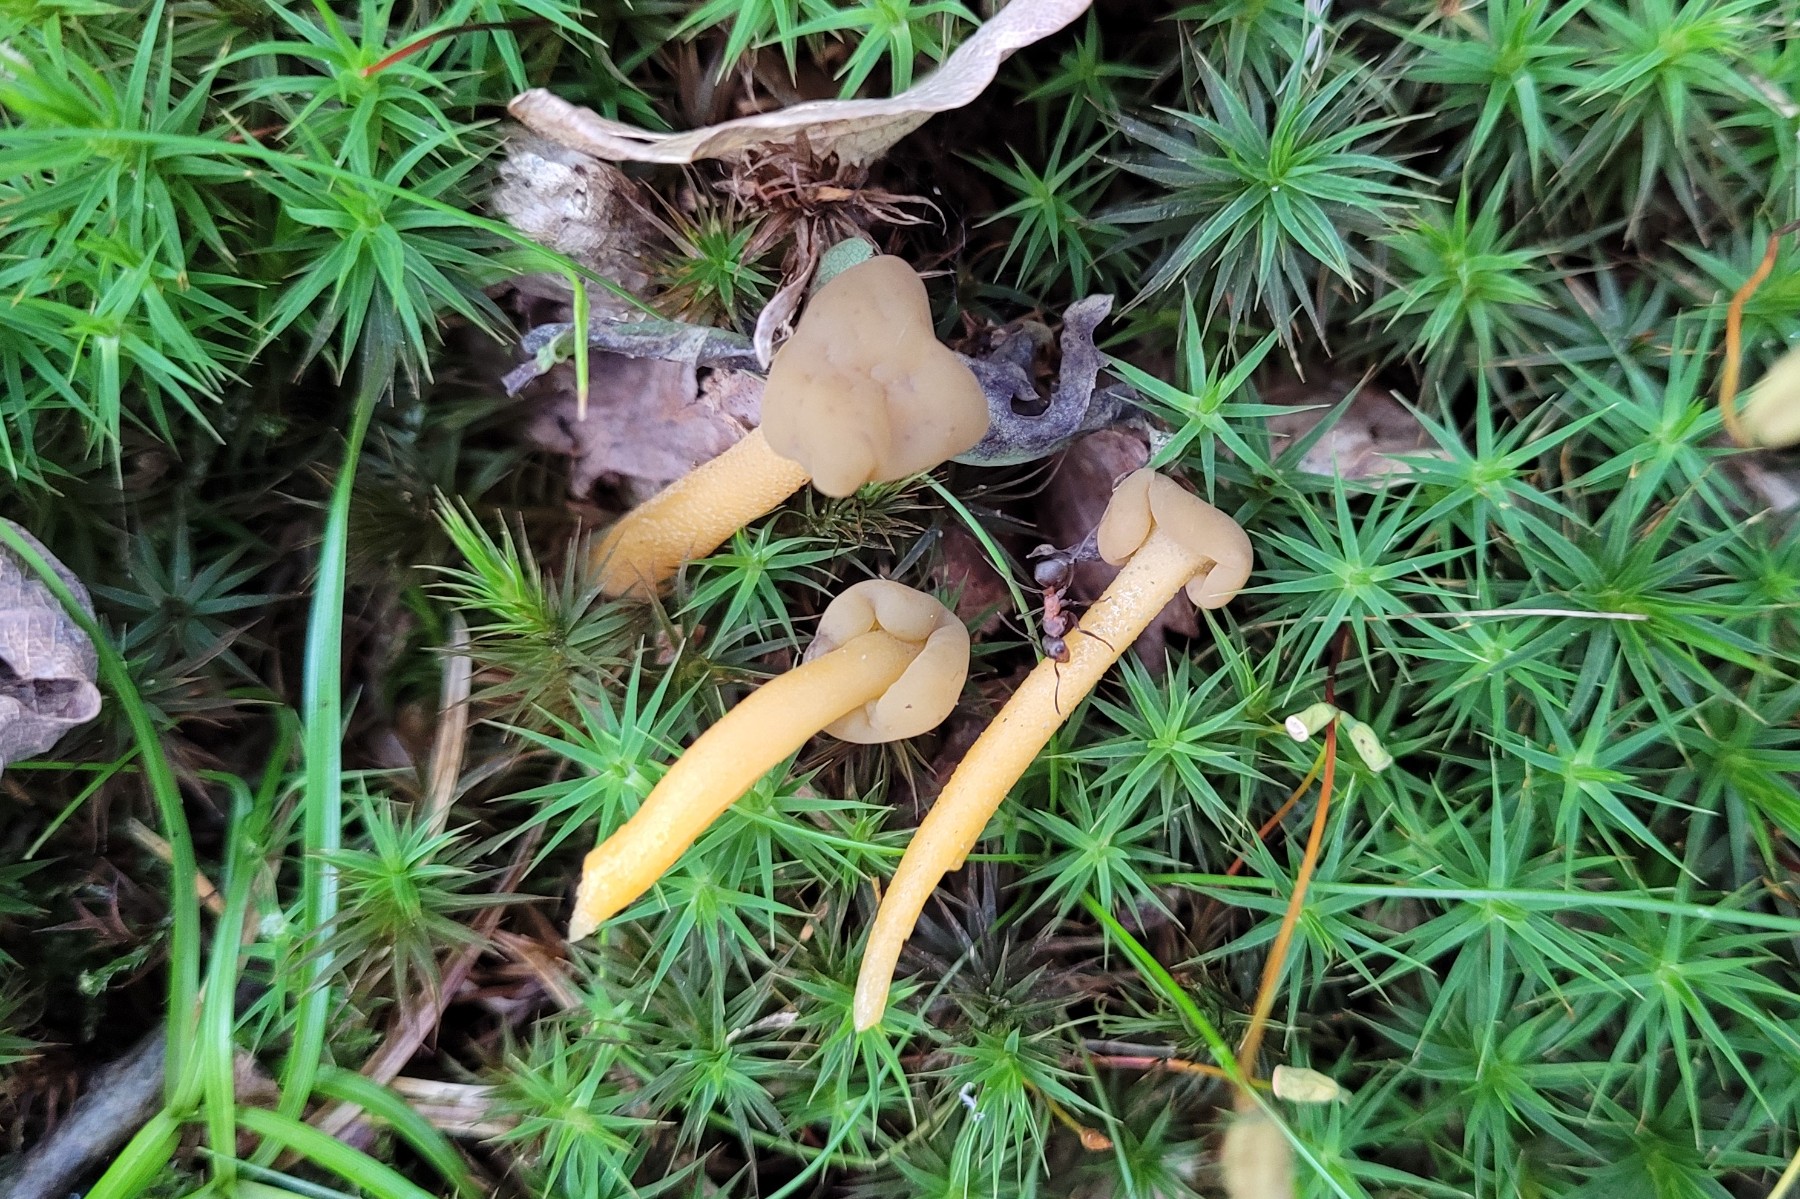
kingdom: Fungi
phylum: Ascomycota
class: Leotiomycetes
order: Leotiales
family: Leotiaceae
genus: Leotia
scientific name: Leotia lubrica
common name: ravsvamp
